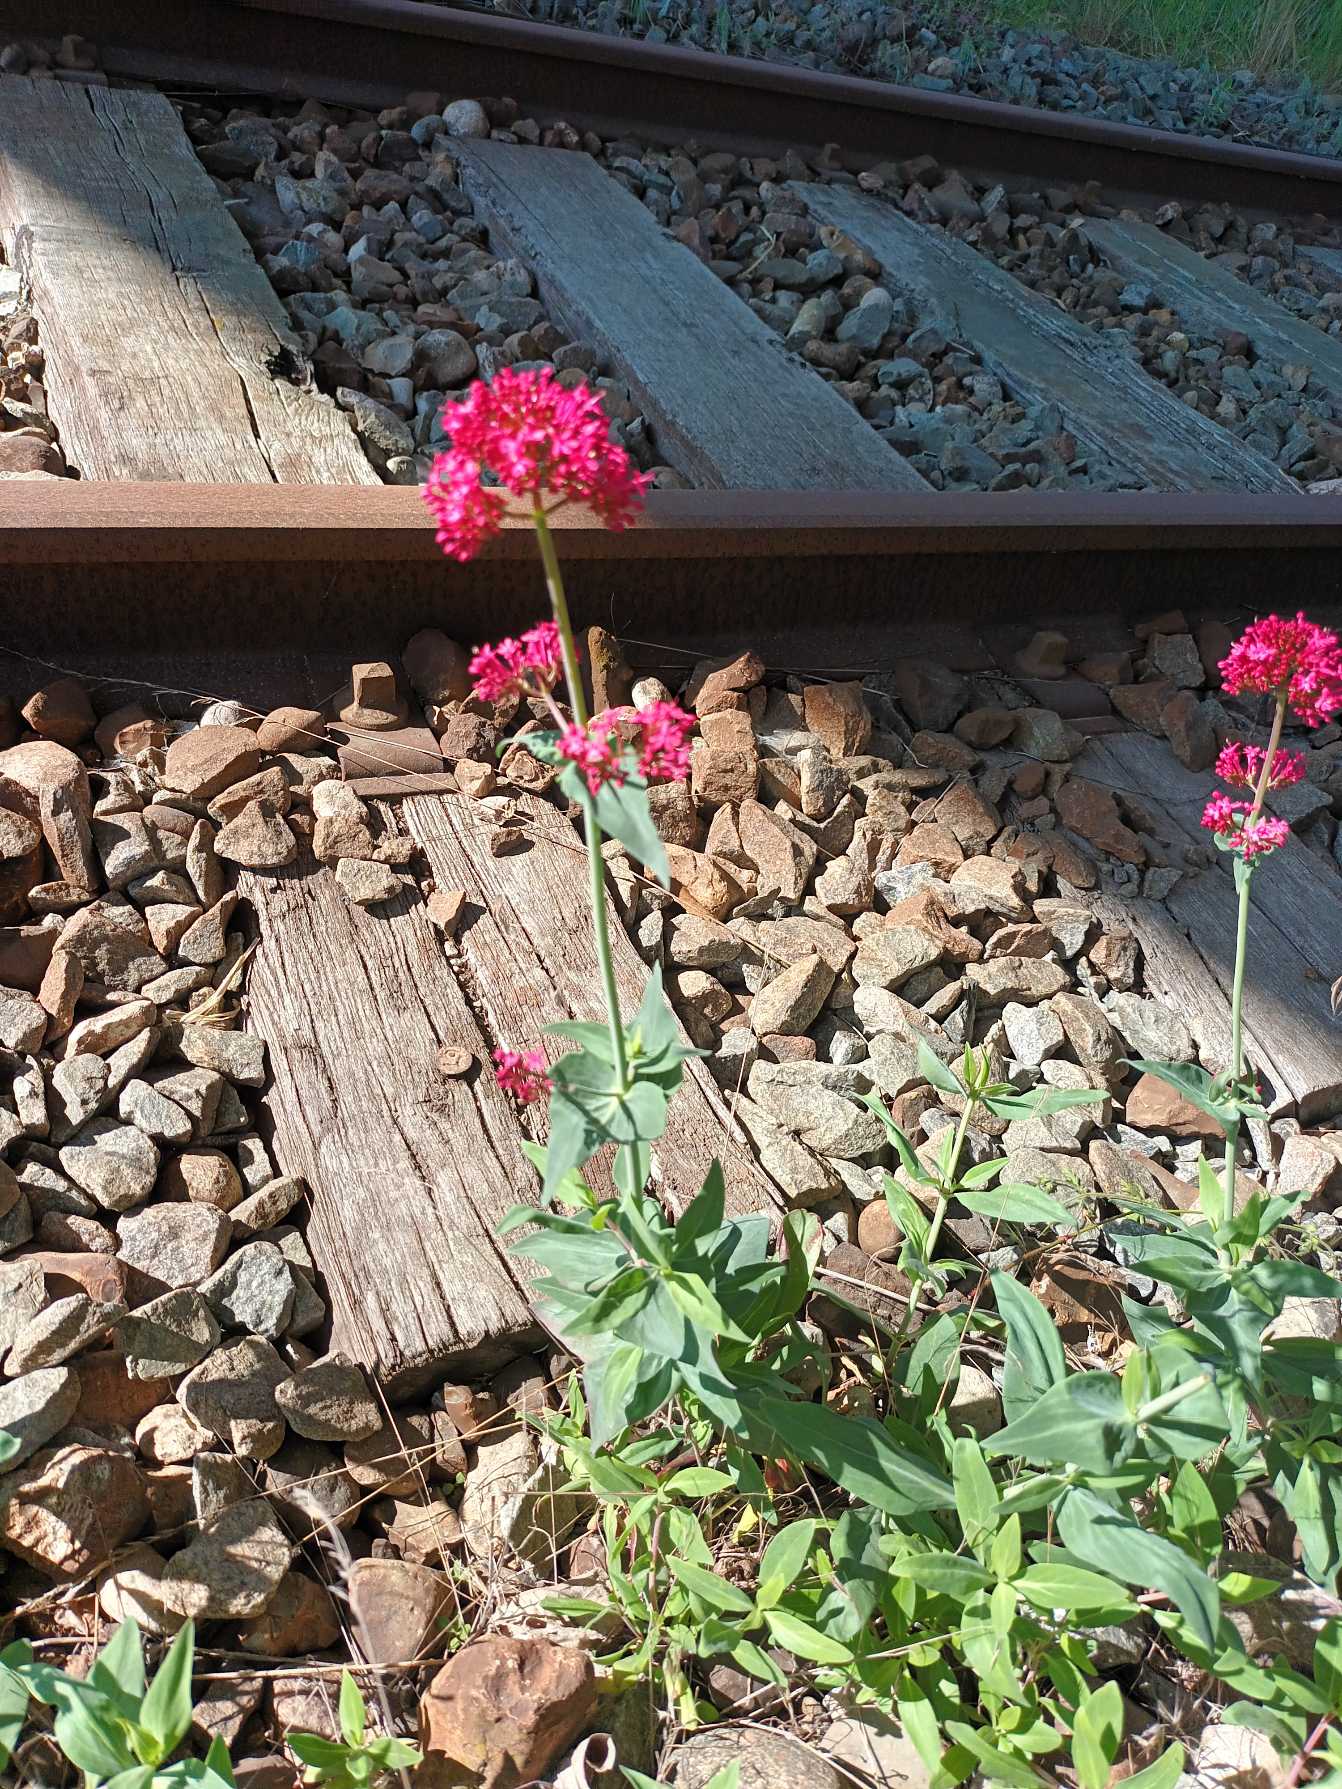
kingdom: Plantae
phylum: Tracheophyta
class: Magnoliopsida
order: Dipsacales
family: Caprifoliaceae
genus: Centranthus
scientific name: Centranthus ruber
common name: Sporebaldrian
